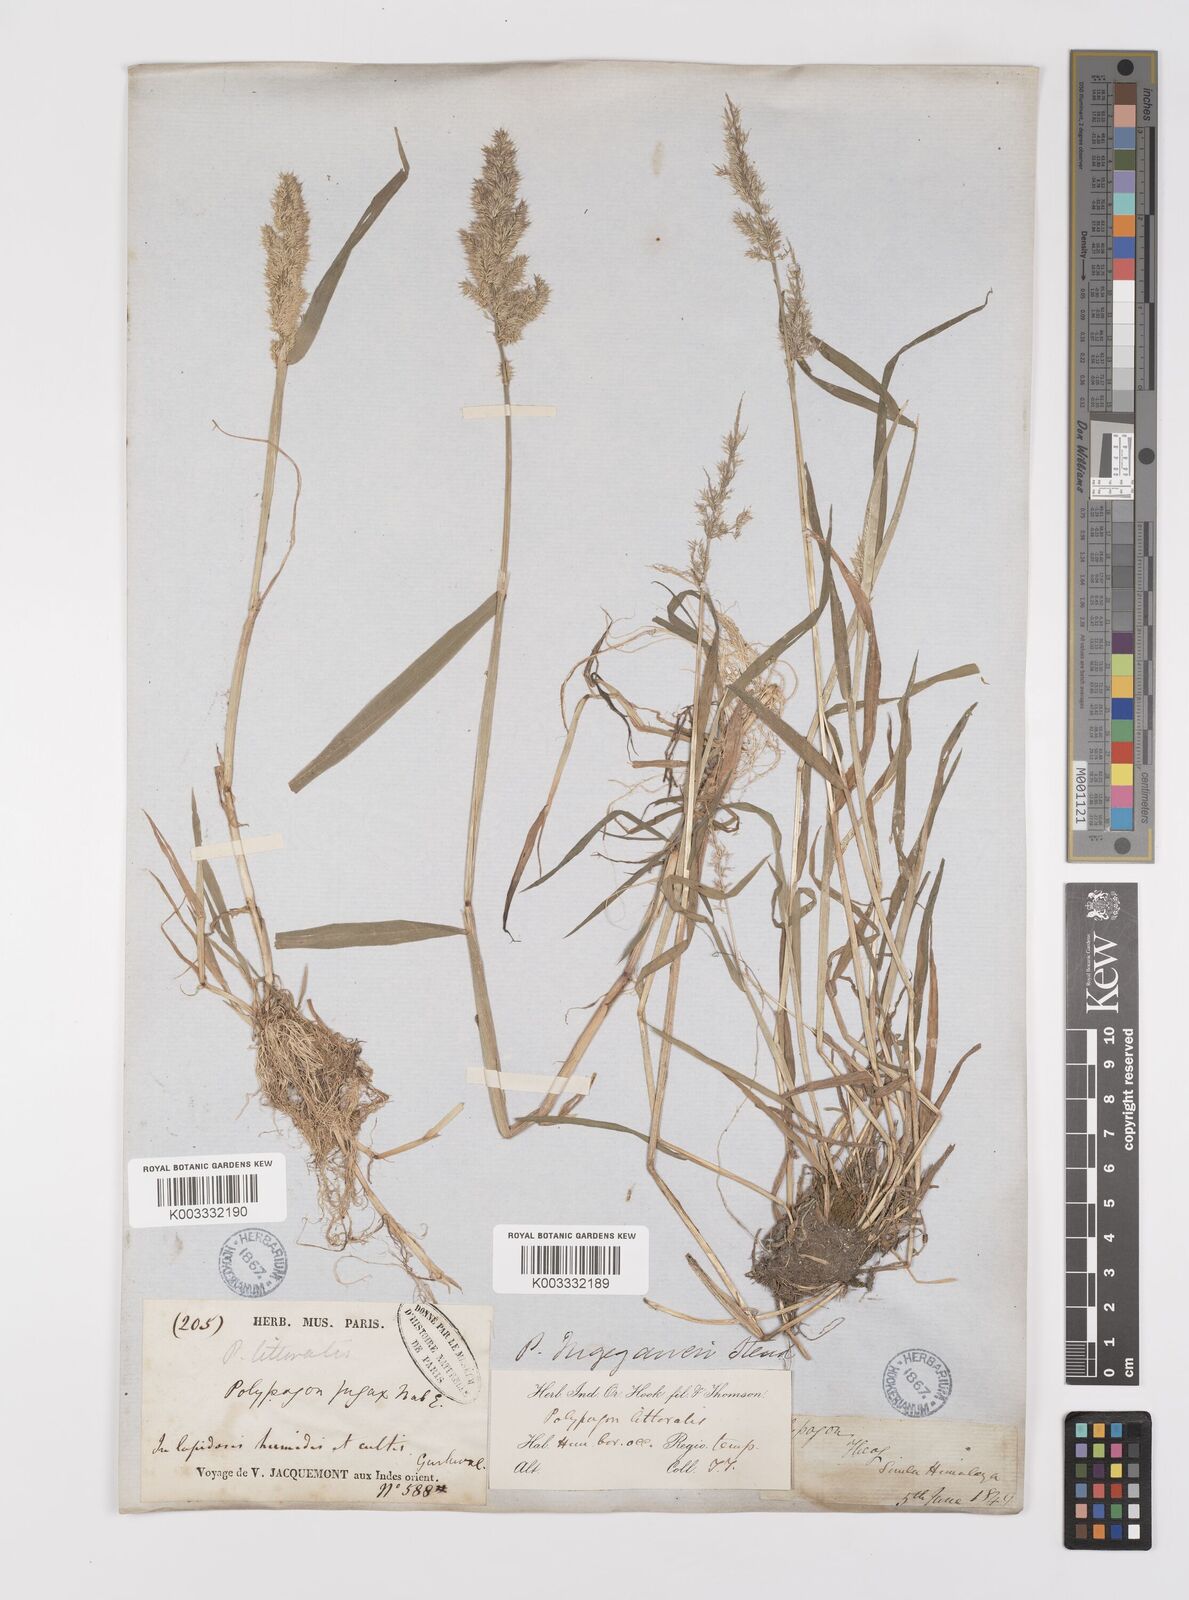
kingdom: Plantae
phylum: Tracheophyta
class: Liliopsida
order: Poales
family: Poaceae
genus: Polypogon
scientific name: Polypogon fugax
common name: Asia minor bluegrass
